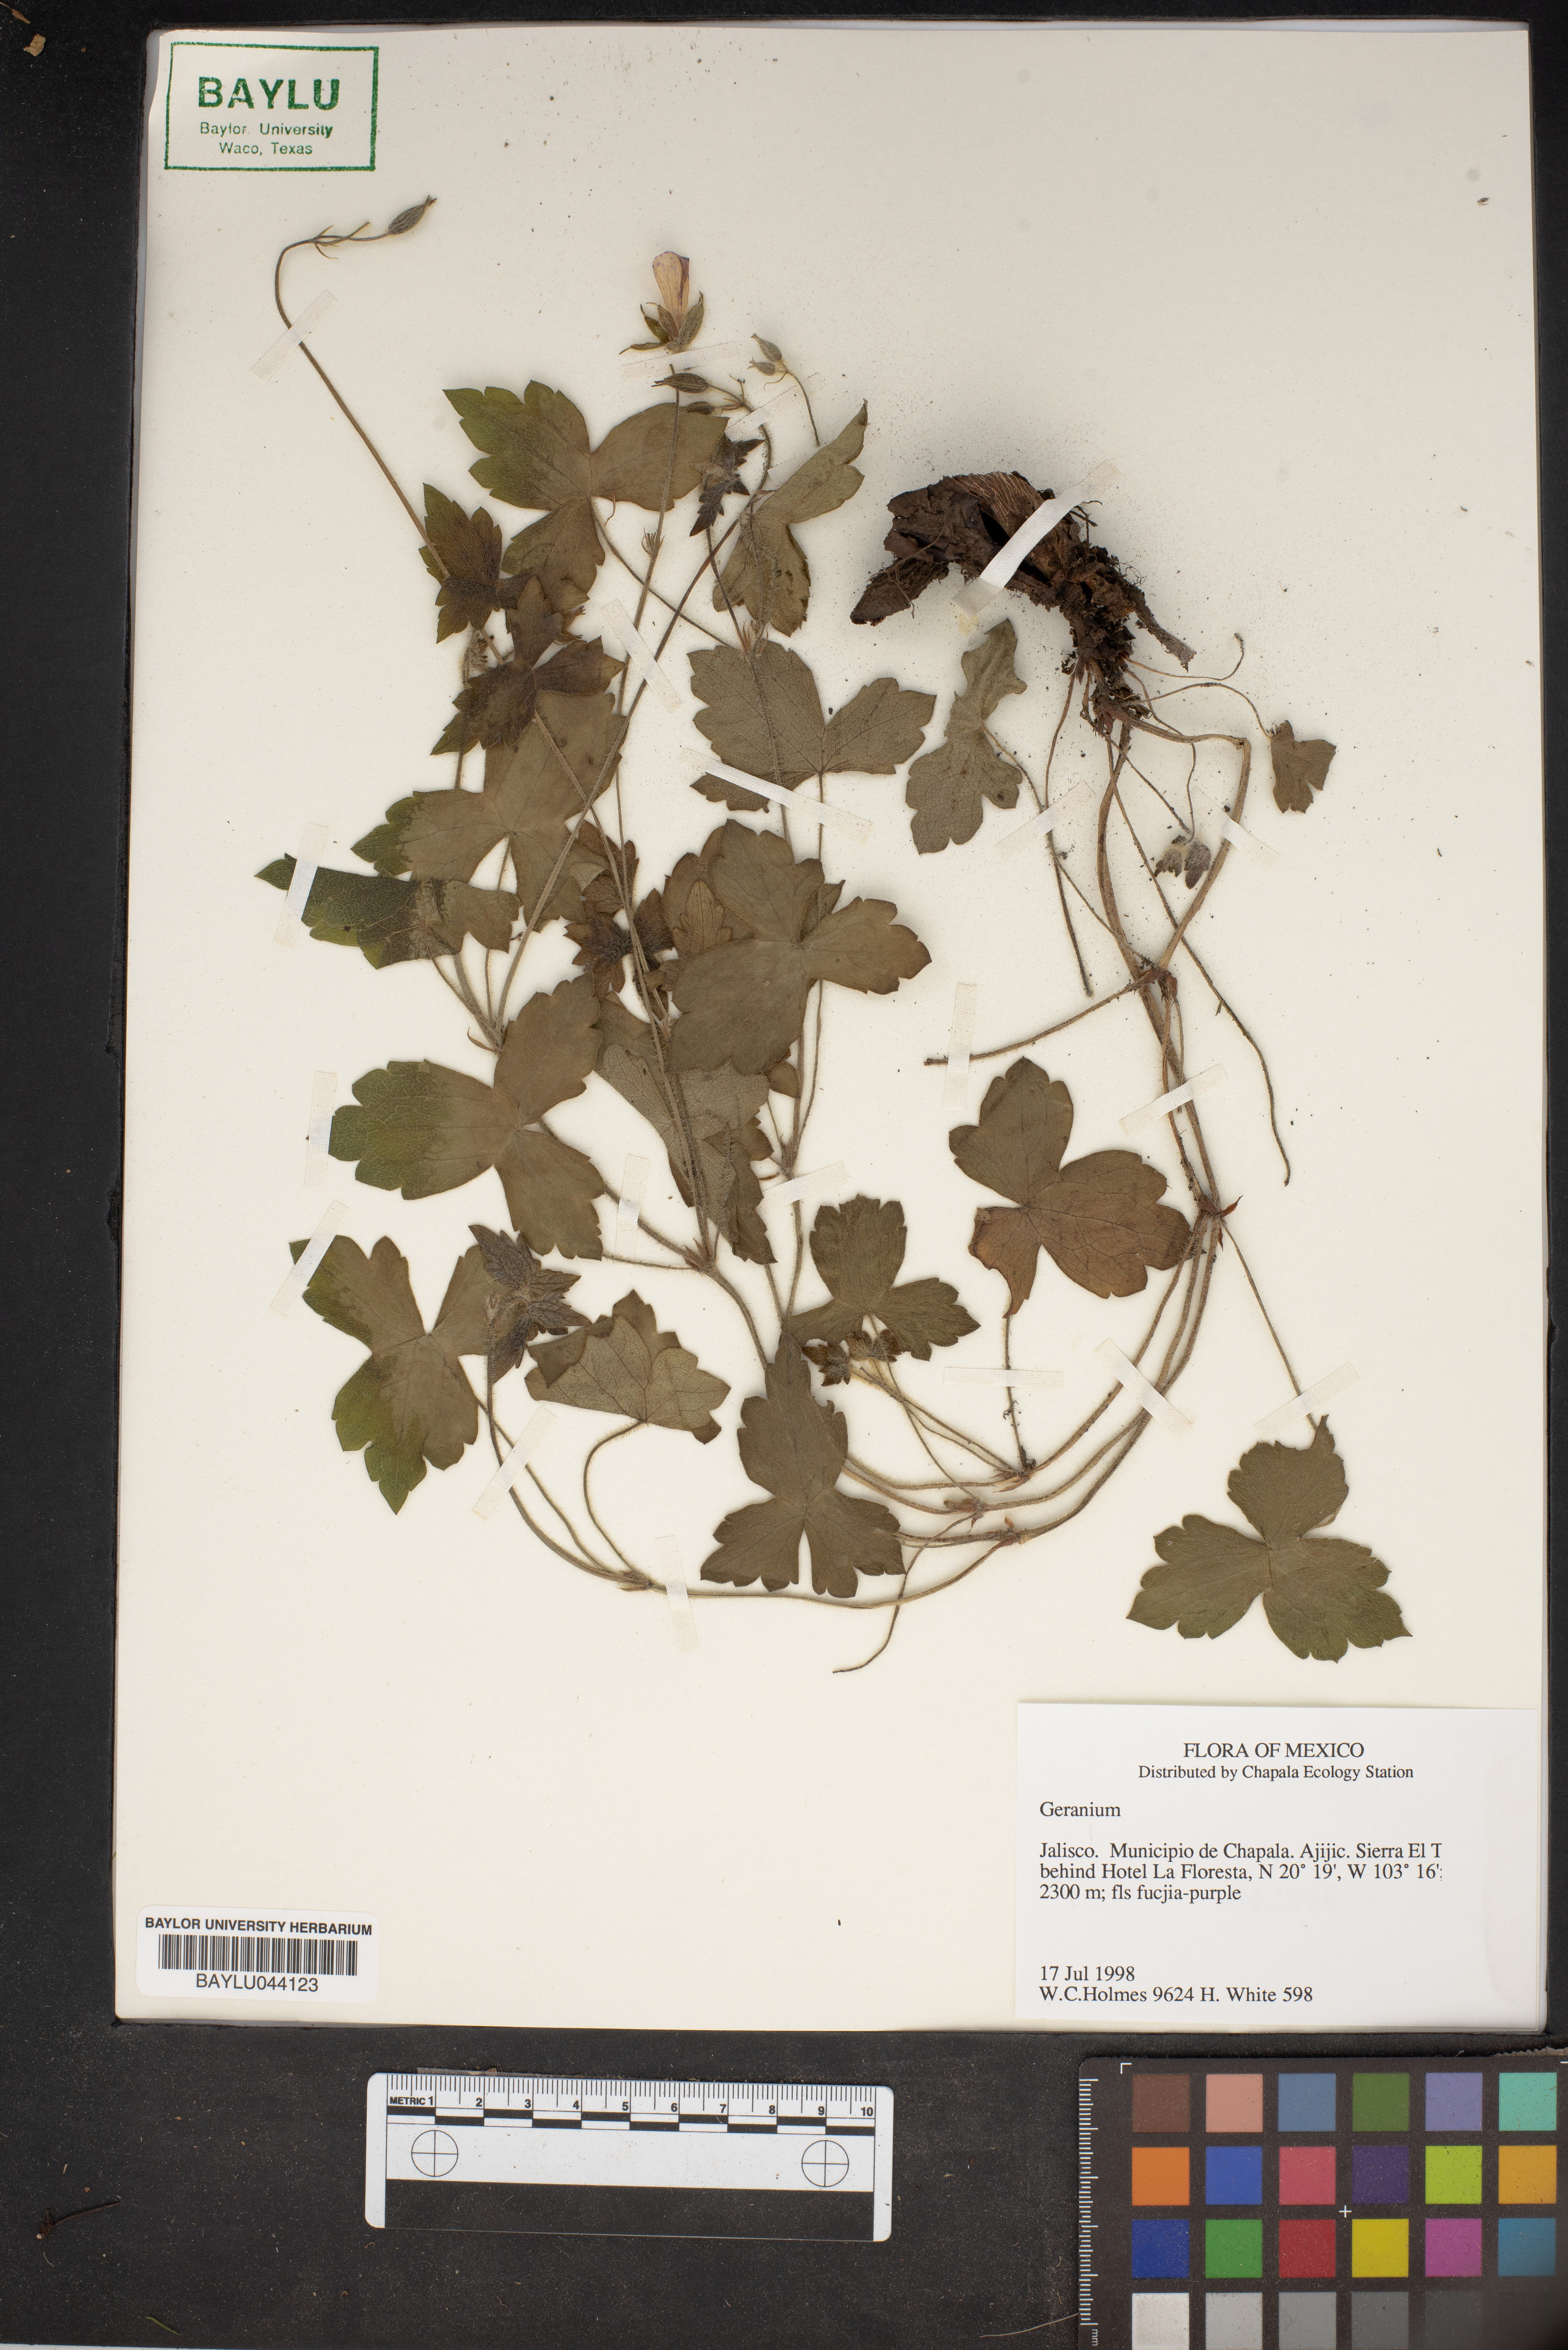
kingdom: Plantae
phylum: Tracheophyta
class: Magnoliopsida
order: Geraniales
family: Geraniaceae
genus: Geranium
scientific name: Geranium
